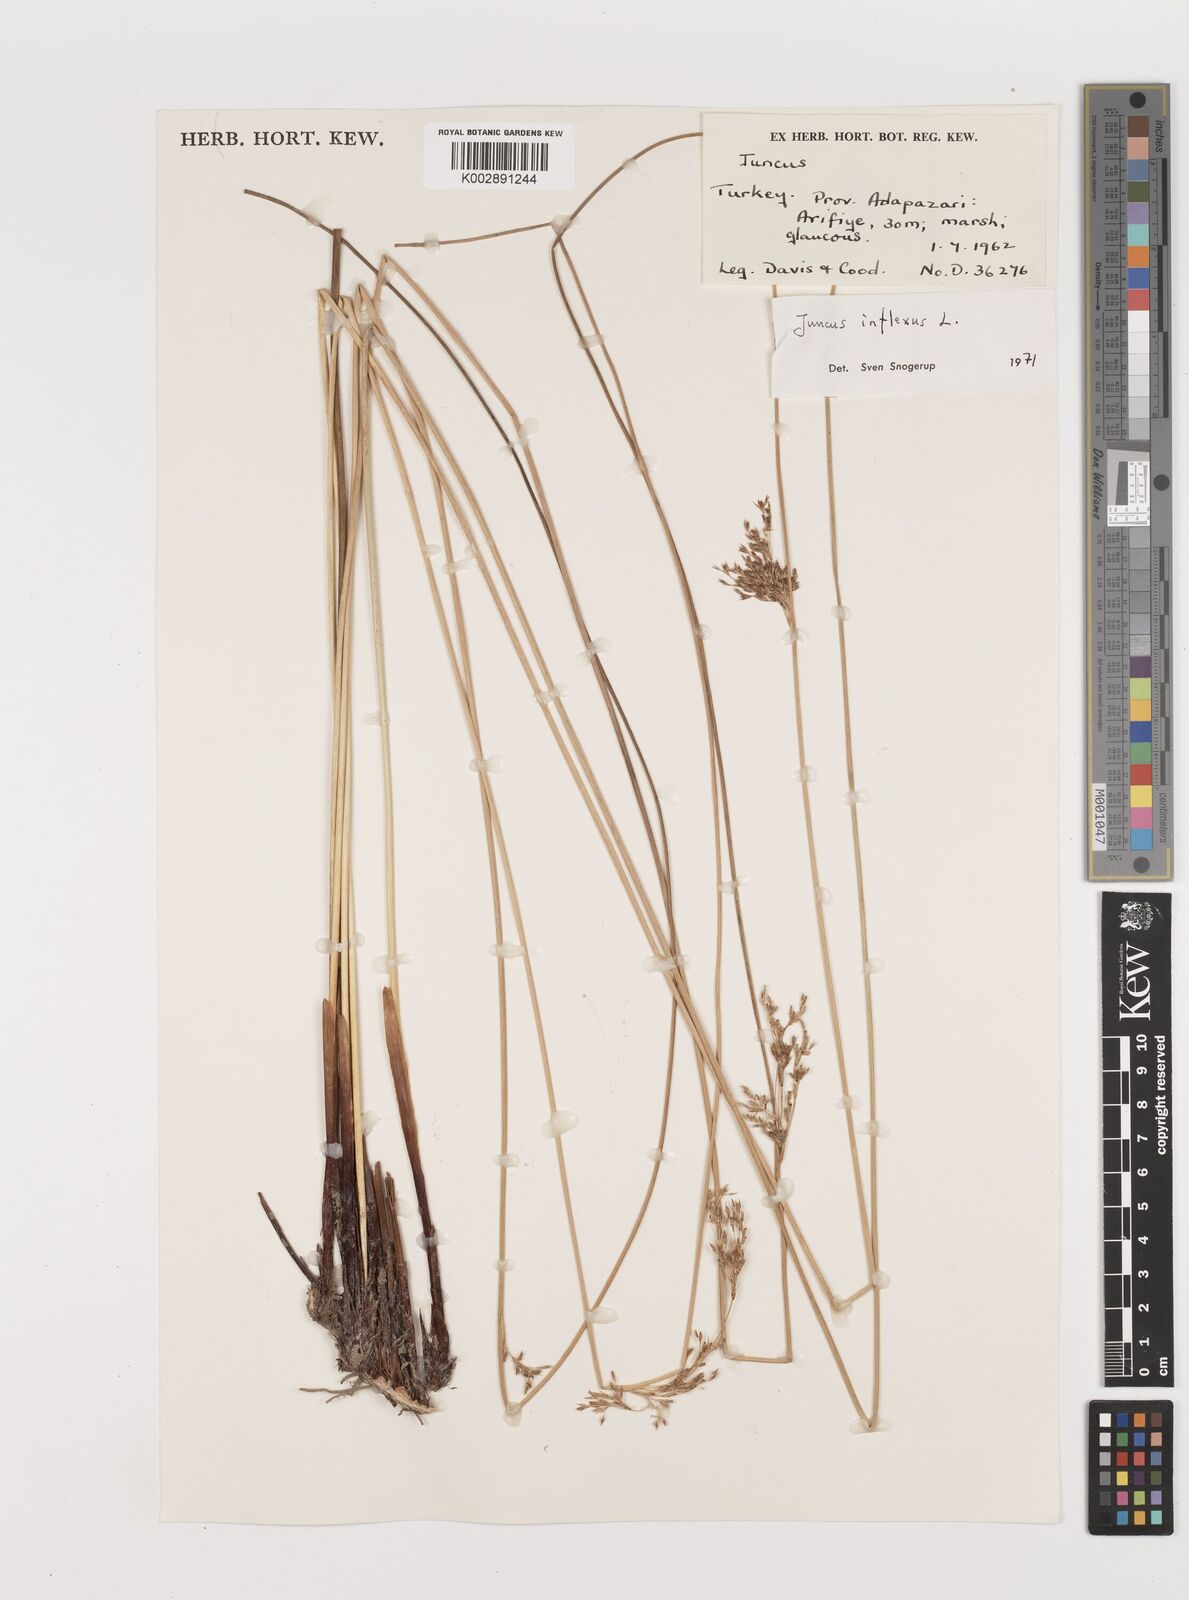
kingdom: Plantae
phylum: Tracheophyta
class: Liliopsida
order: Poales
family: Juncaceae
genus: Juncus
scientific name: Juncus inflexus
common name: Hard rush
